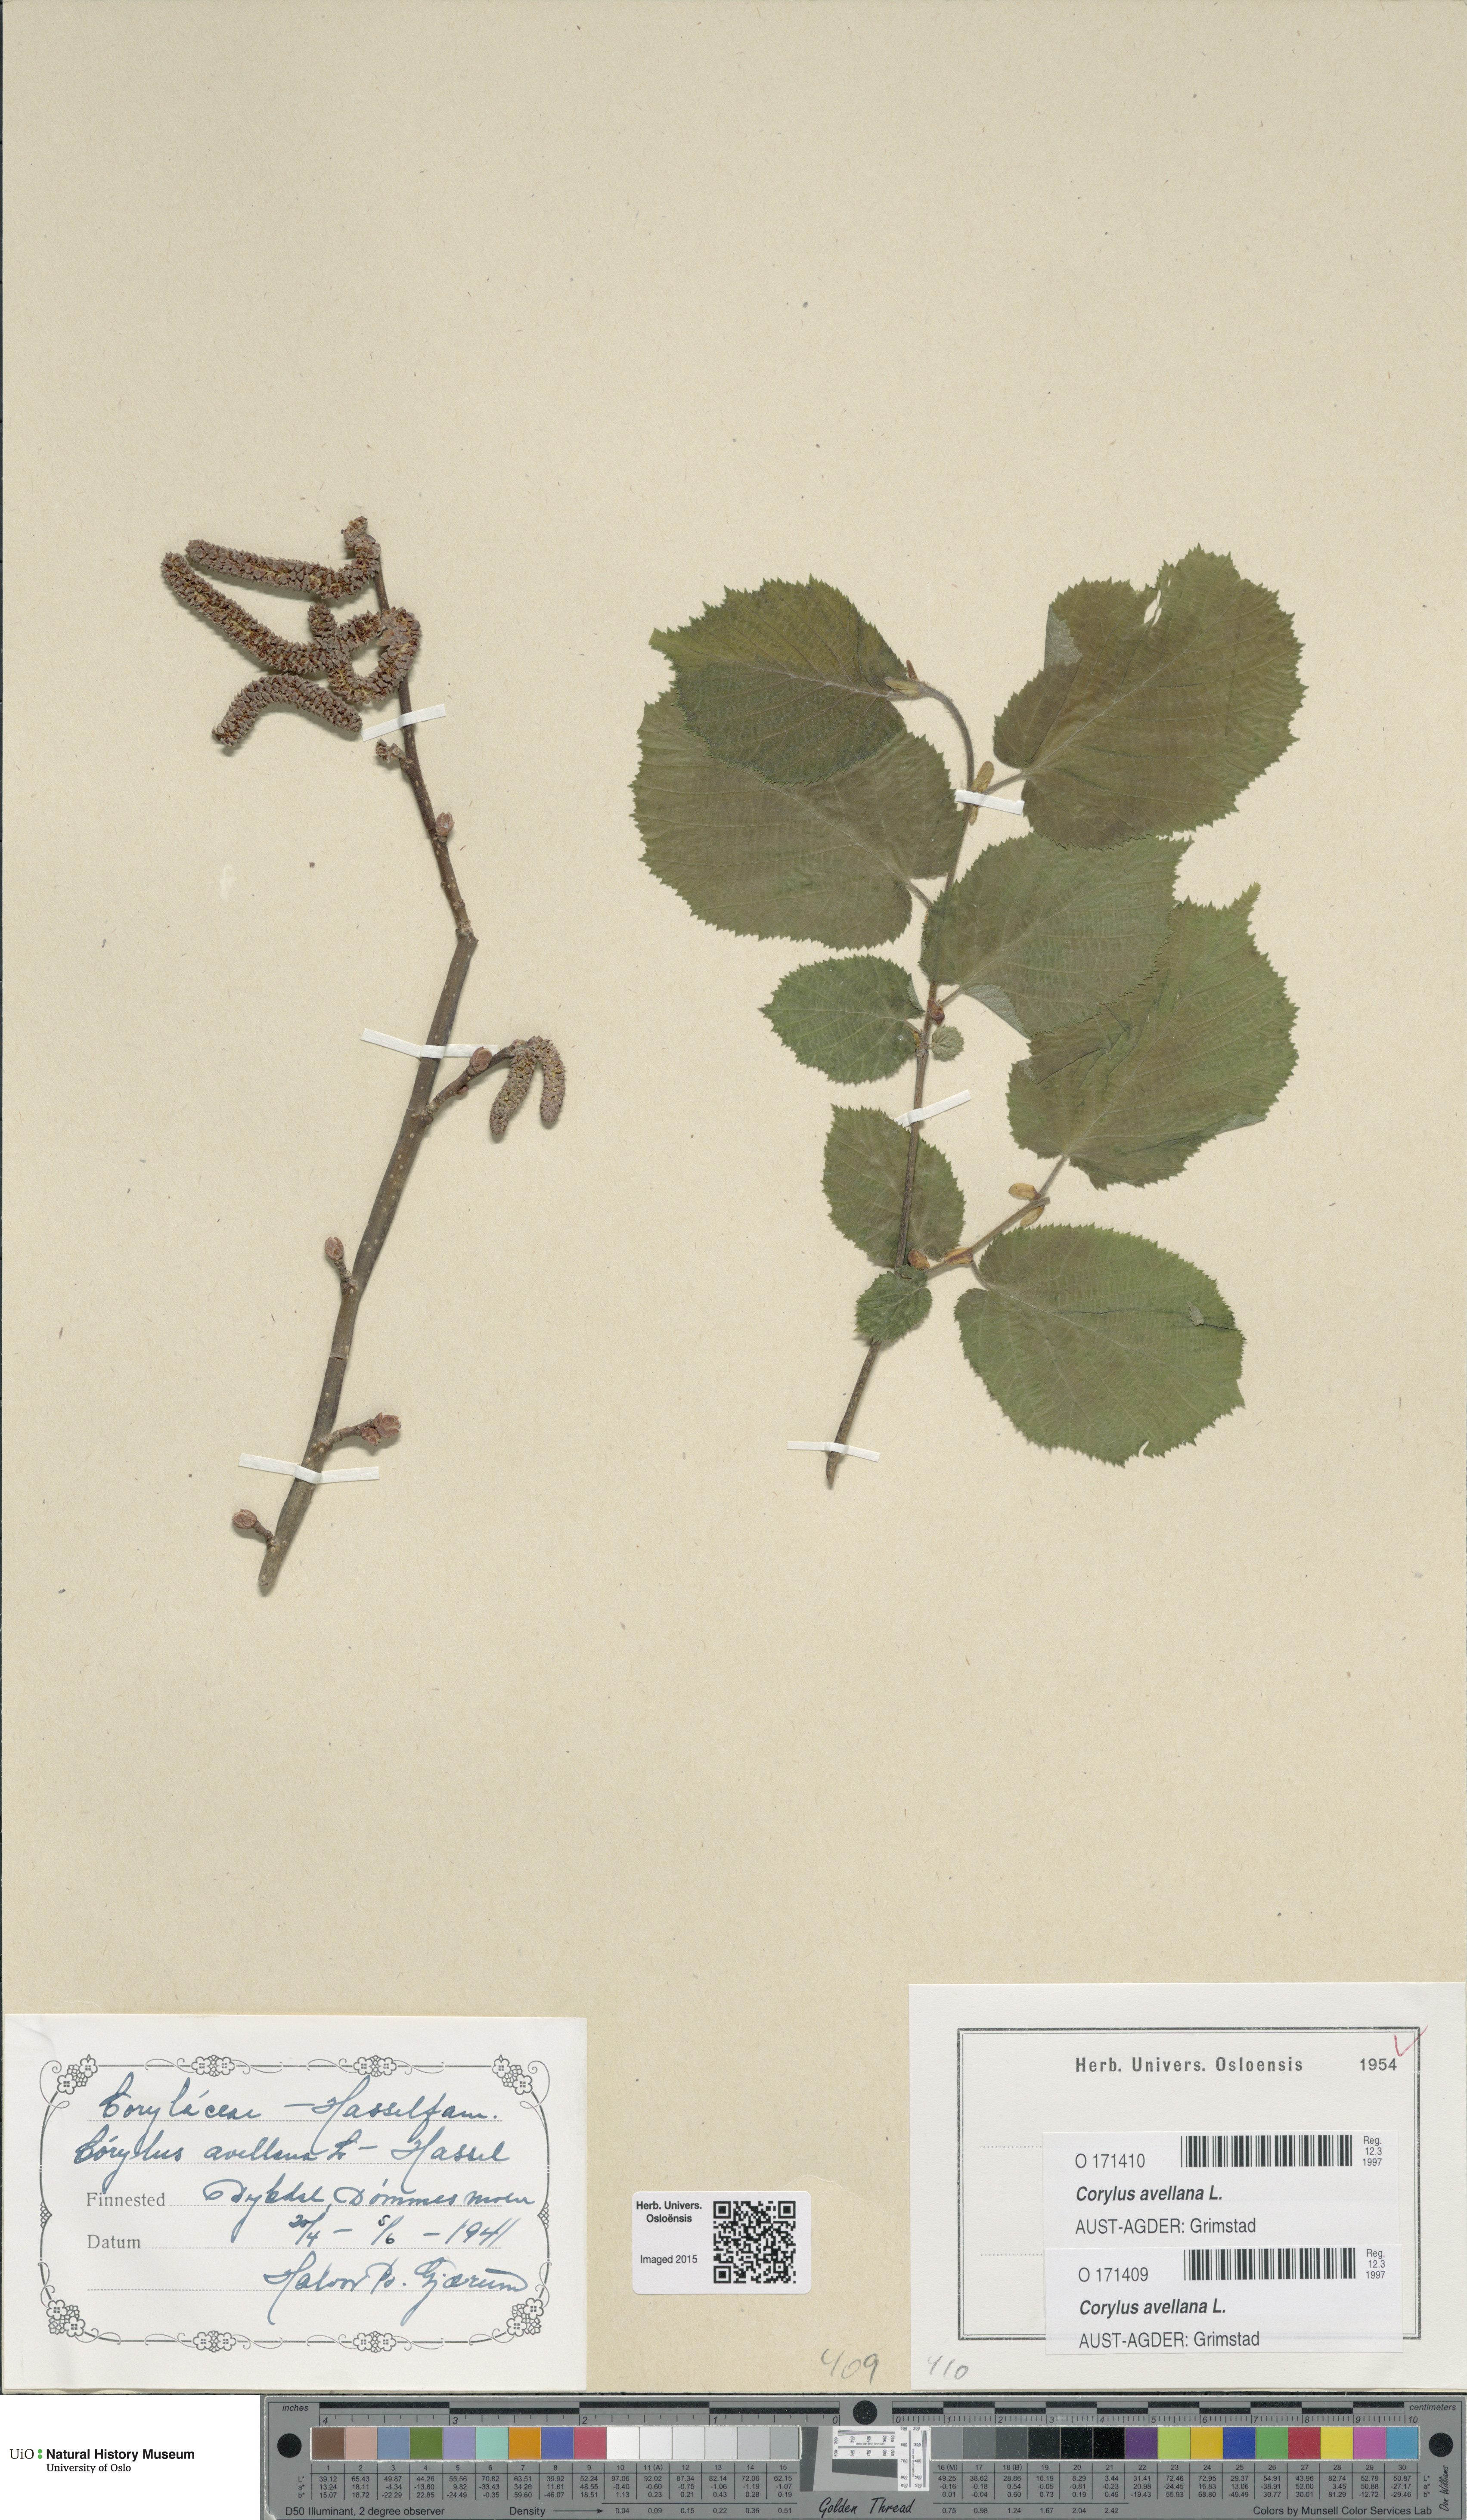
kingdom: Plantae
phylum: Tracheophyta
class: Magnoliopsida
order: Fagales
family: Betulaceae
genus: Corylus
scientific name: Corylus avellana
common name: European hazel
